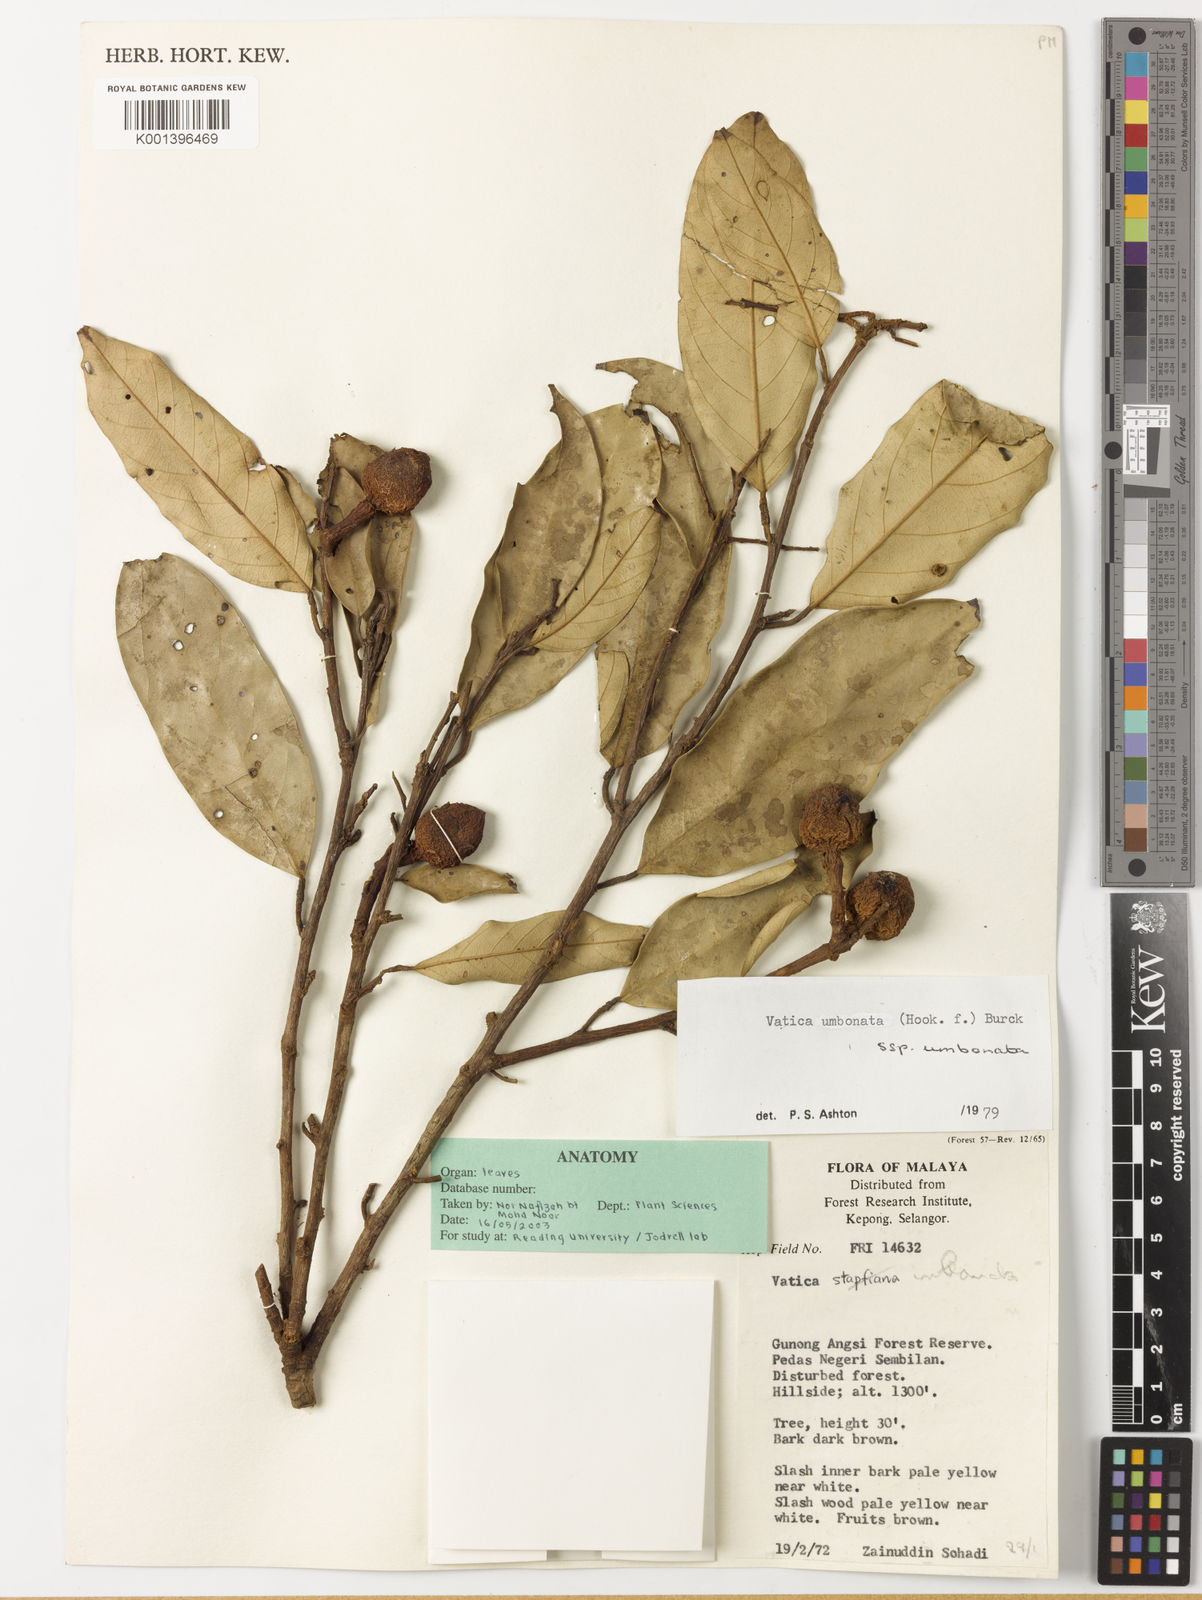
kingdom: Plantae
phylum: Tracheophyta
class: Magnoliopsida
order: Malvales
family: Dipterocarpaceae
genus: Vatica
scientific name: Vatica umbonata
